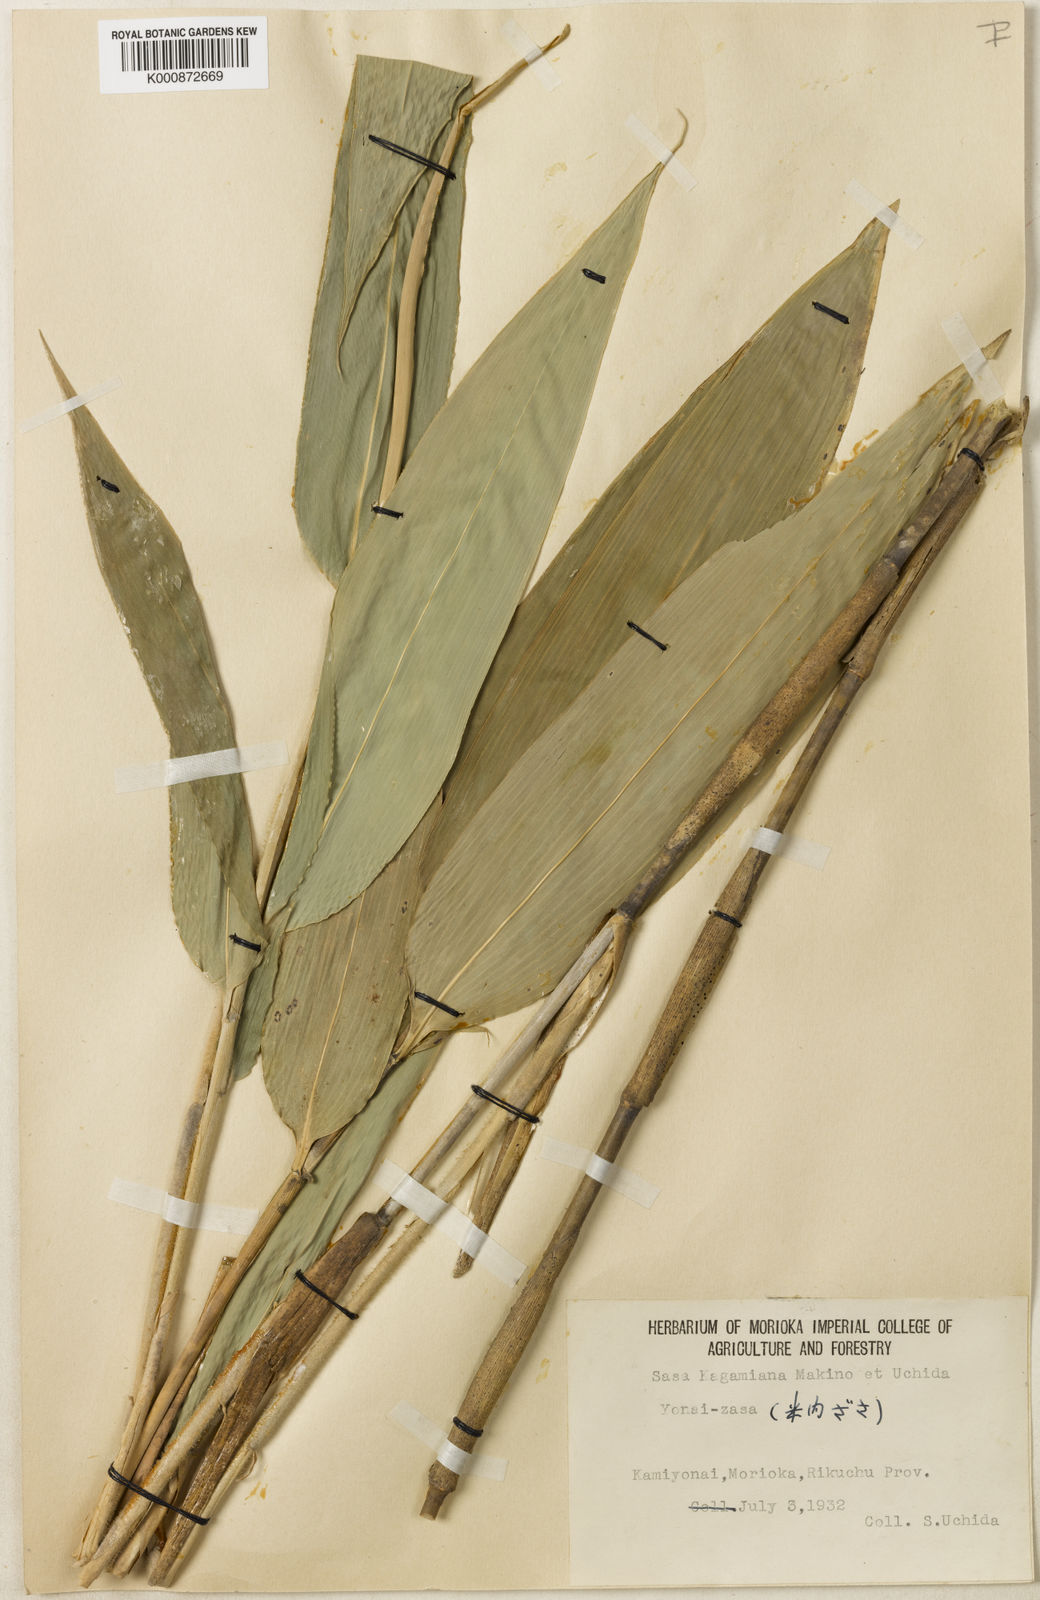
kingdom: Plantae
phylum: Tracheophyta
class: Liliopsida
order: Poales
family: Poaceae
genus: Sasa
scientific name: Sasa kagamiana
